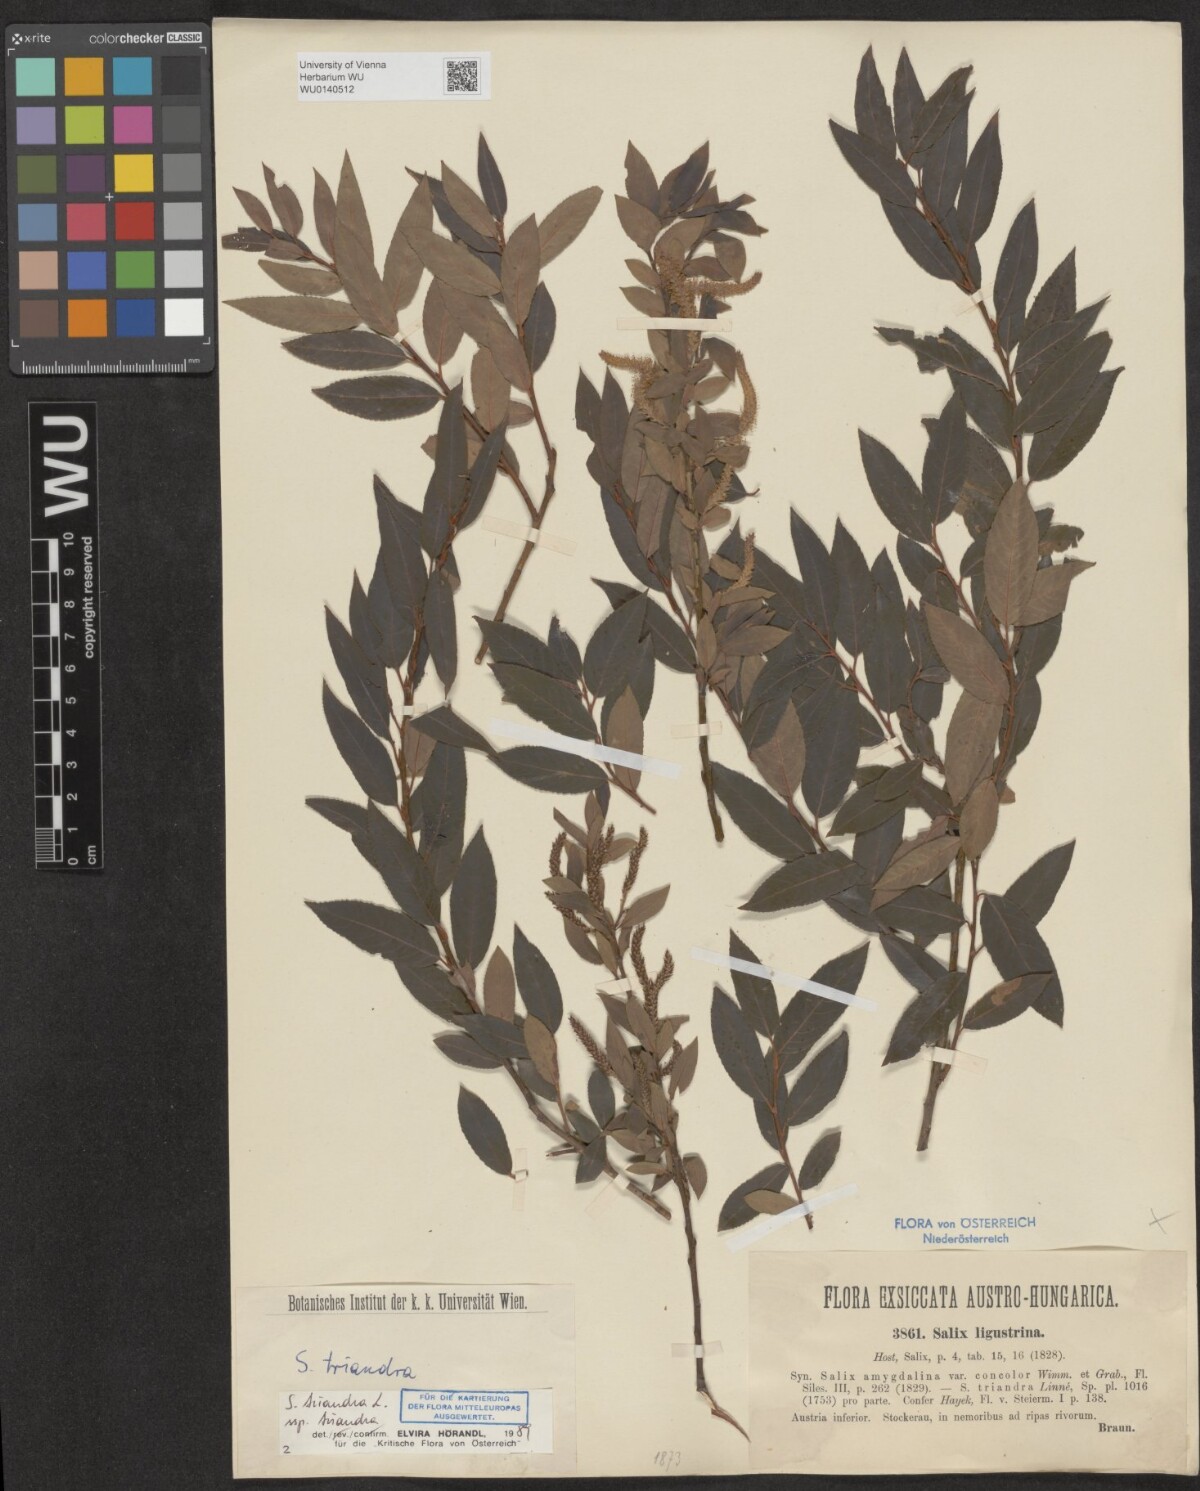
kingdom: Plantae
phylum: Tracheophyta
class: Magnoliopsida
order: Malpighiales
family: Salicaceae
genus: Salix
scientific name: Salix triandra
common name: Almond willow
